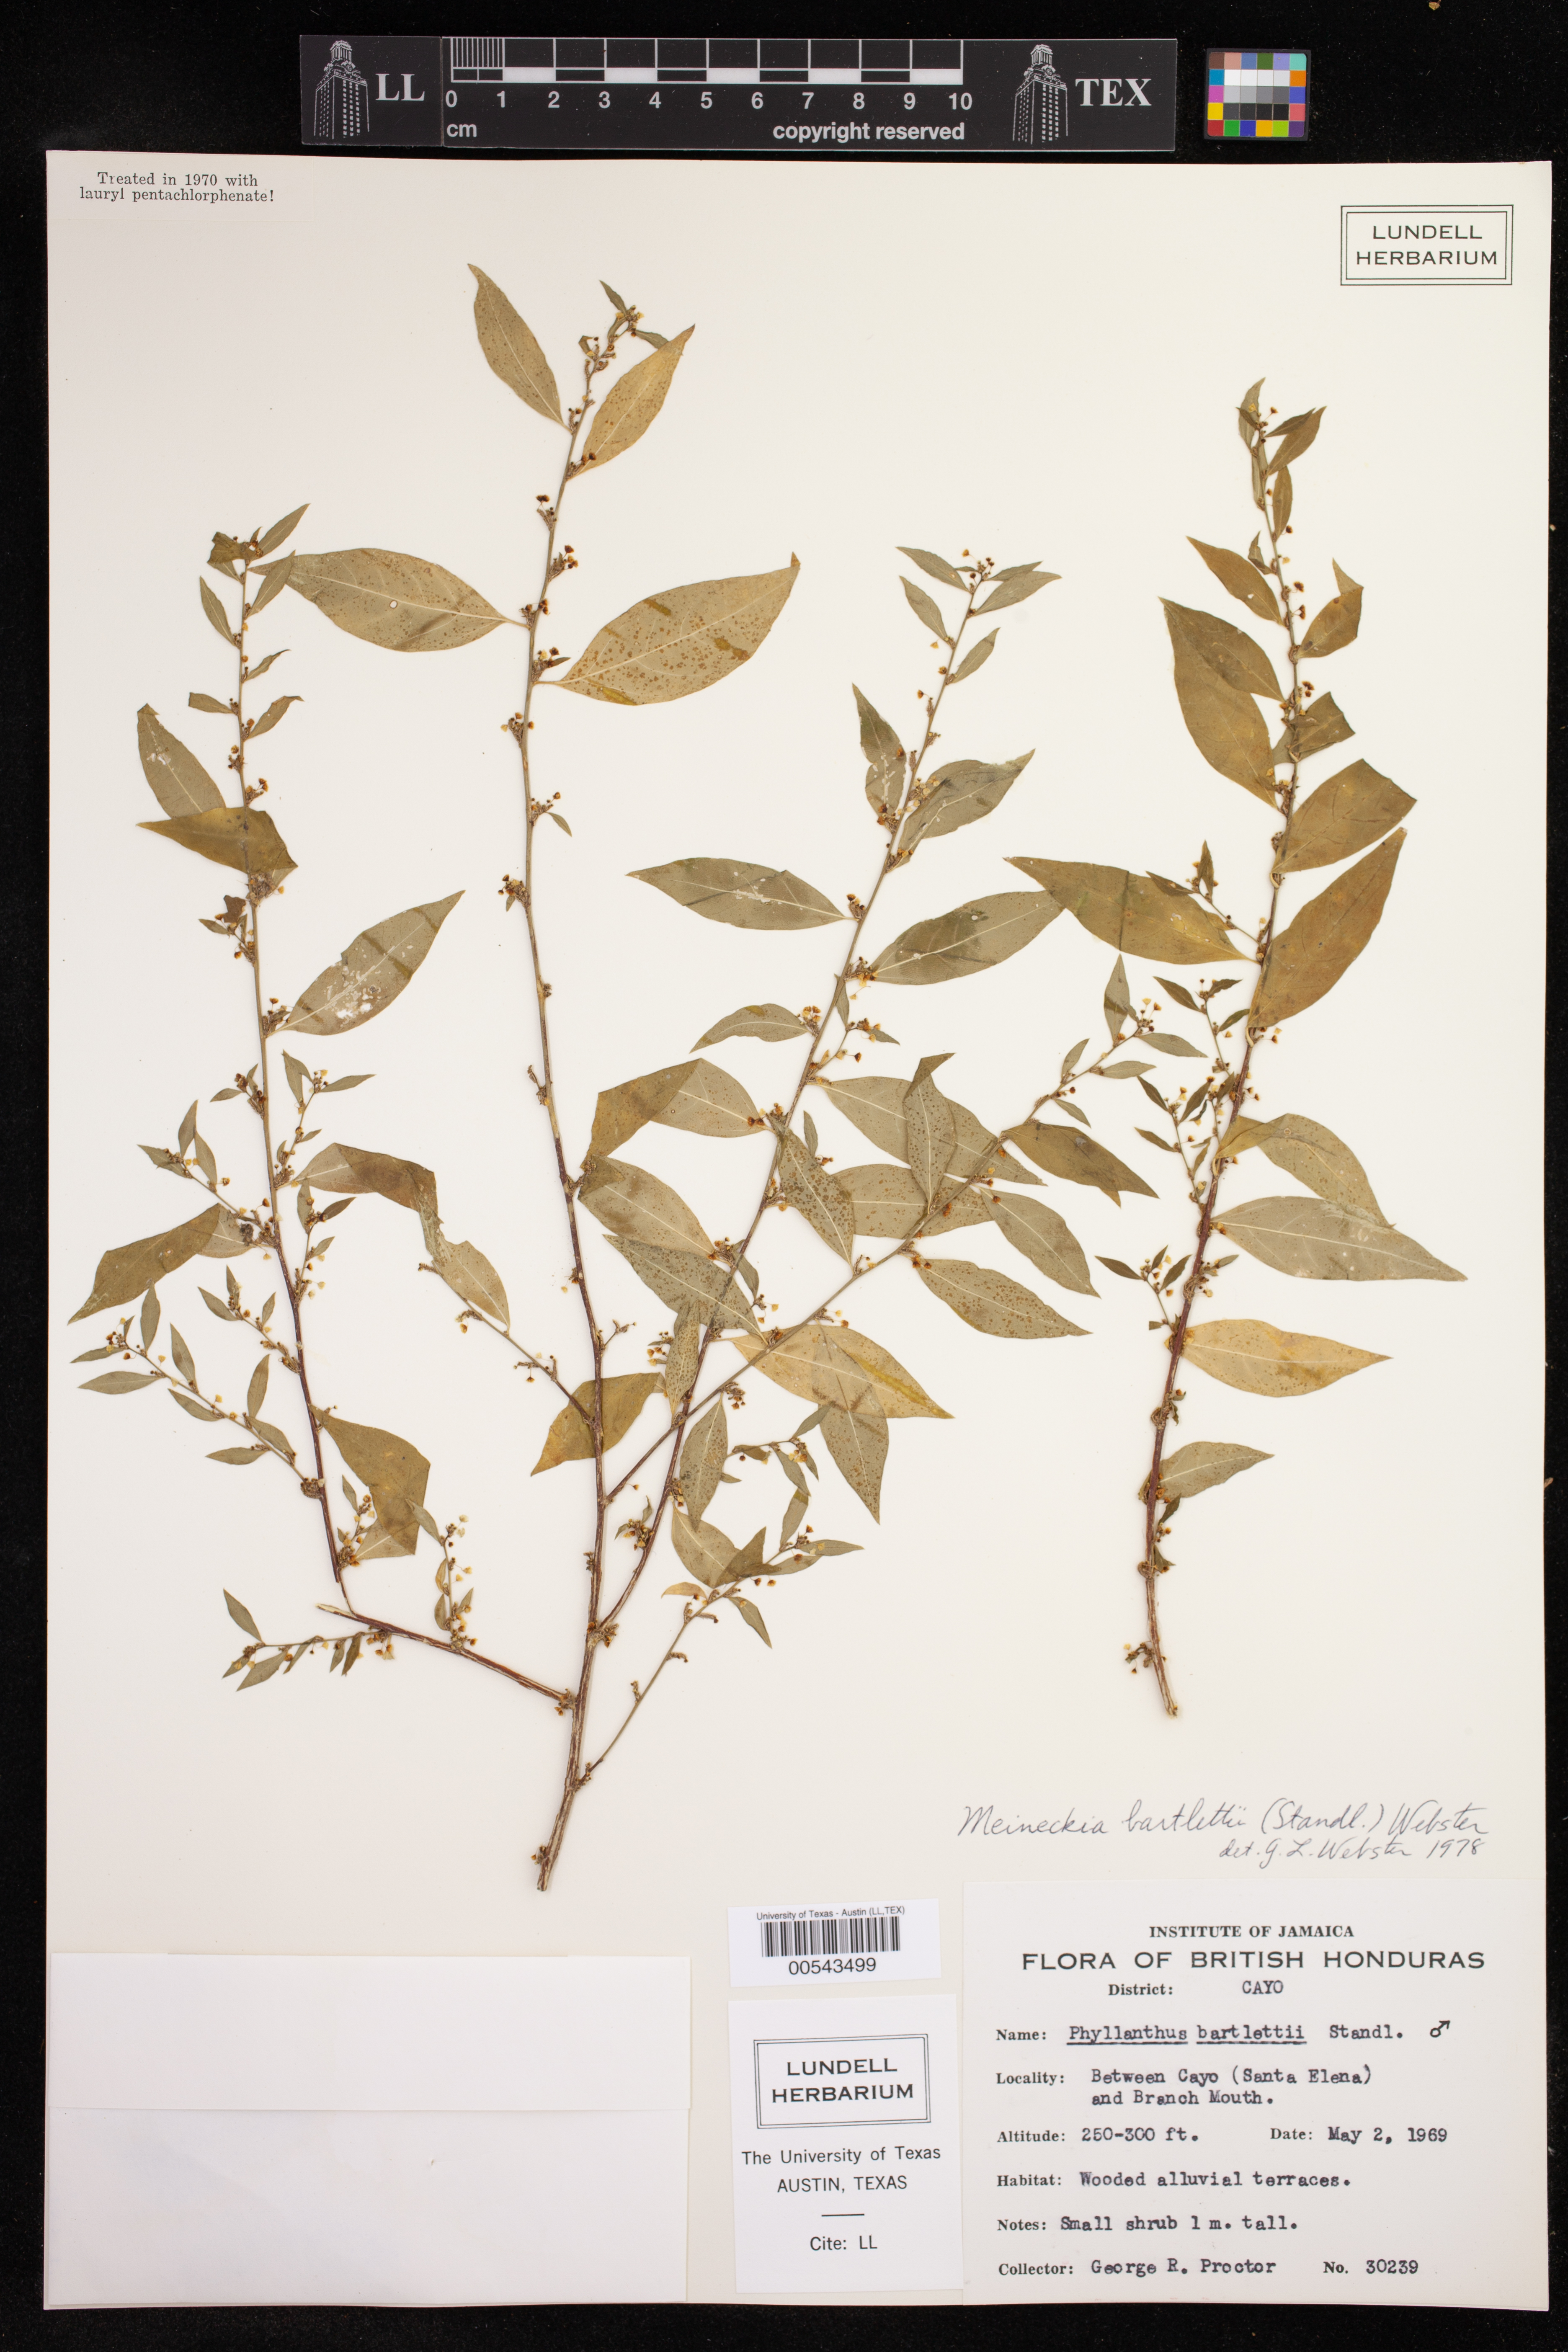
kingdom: Plantae
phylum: Tracheophyta
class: Magnoliopsida
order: Malpighiales
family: Phyllanthaceae
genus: Meineckia
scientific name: Meineckia bartlettii
